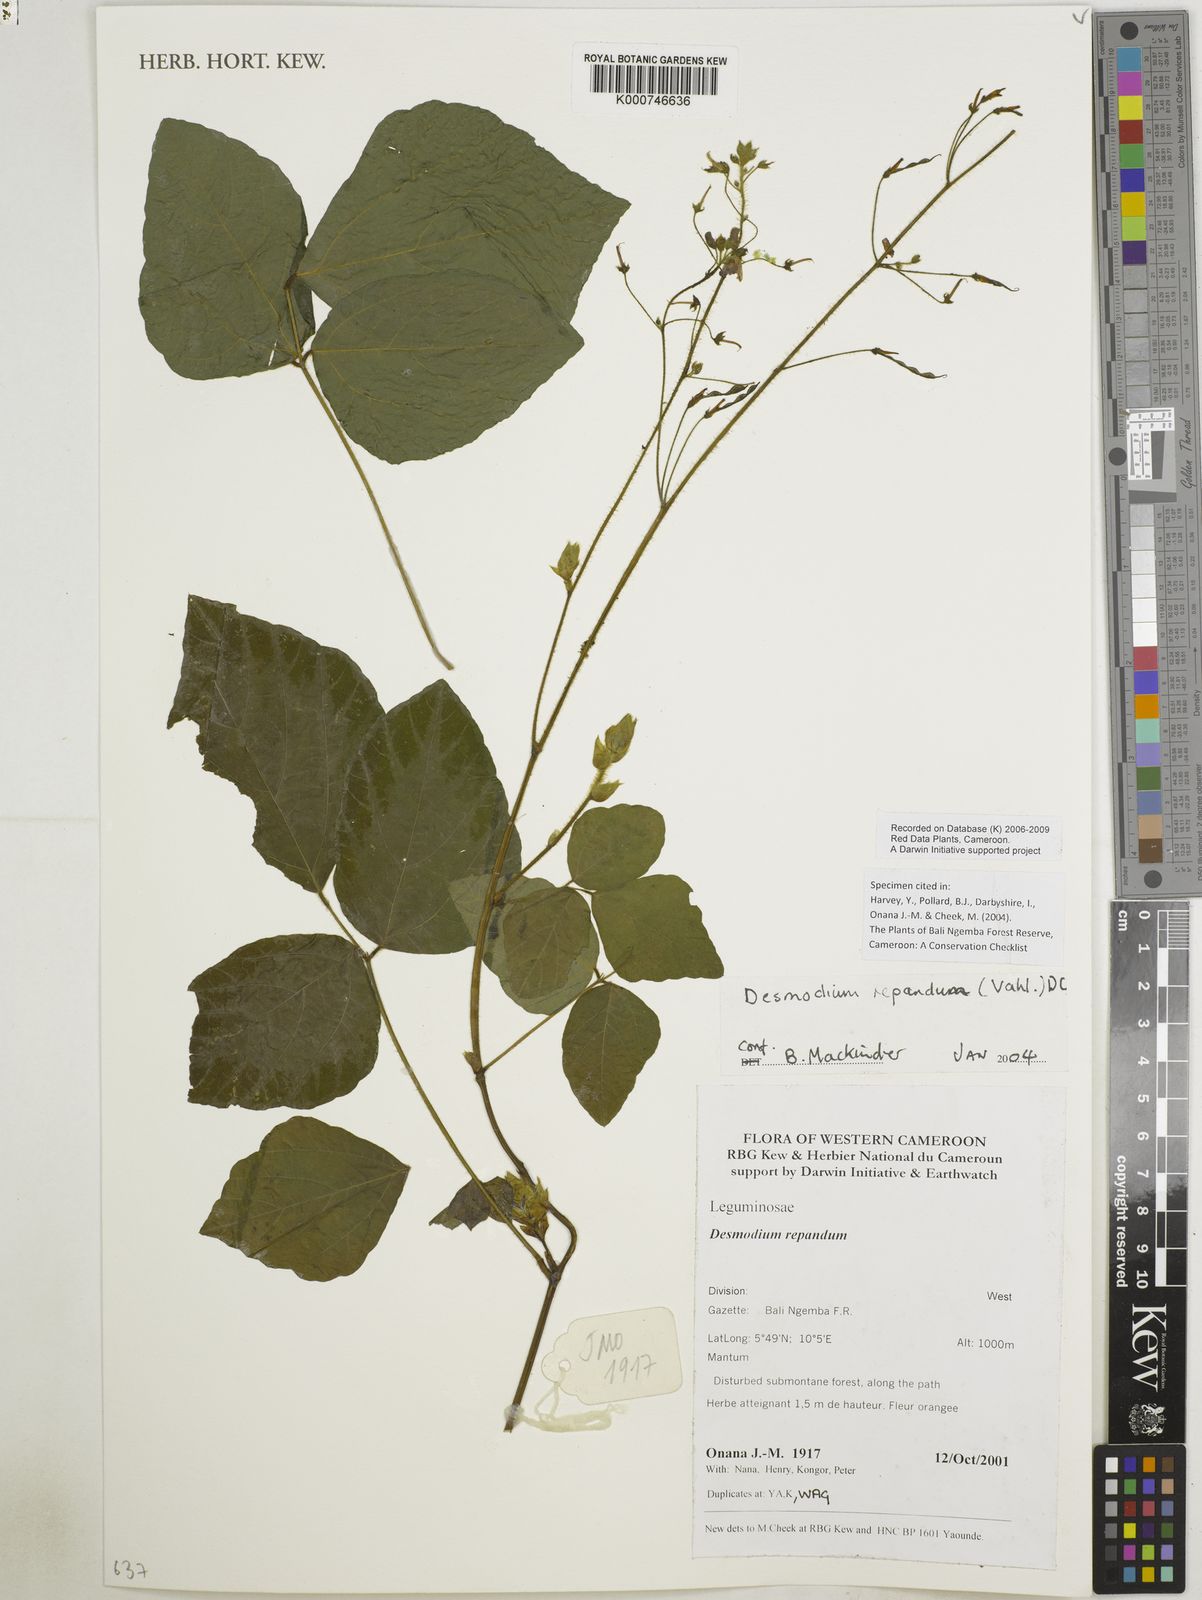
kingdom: Plantae
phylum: Tracheophyta
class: Magnoliopsida
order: Fabales
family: Fabaceae
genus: Desmodium
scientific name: Desmodium
